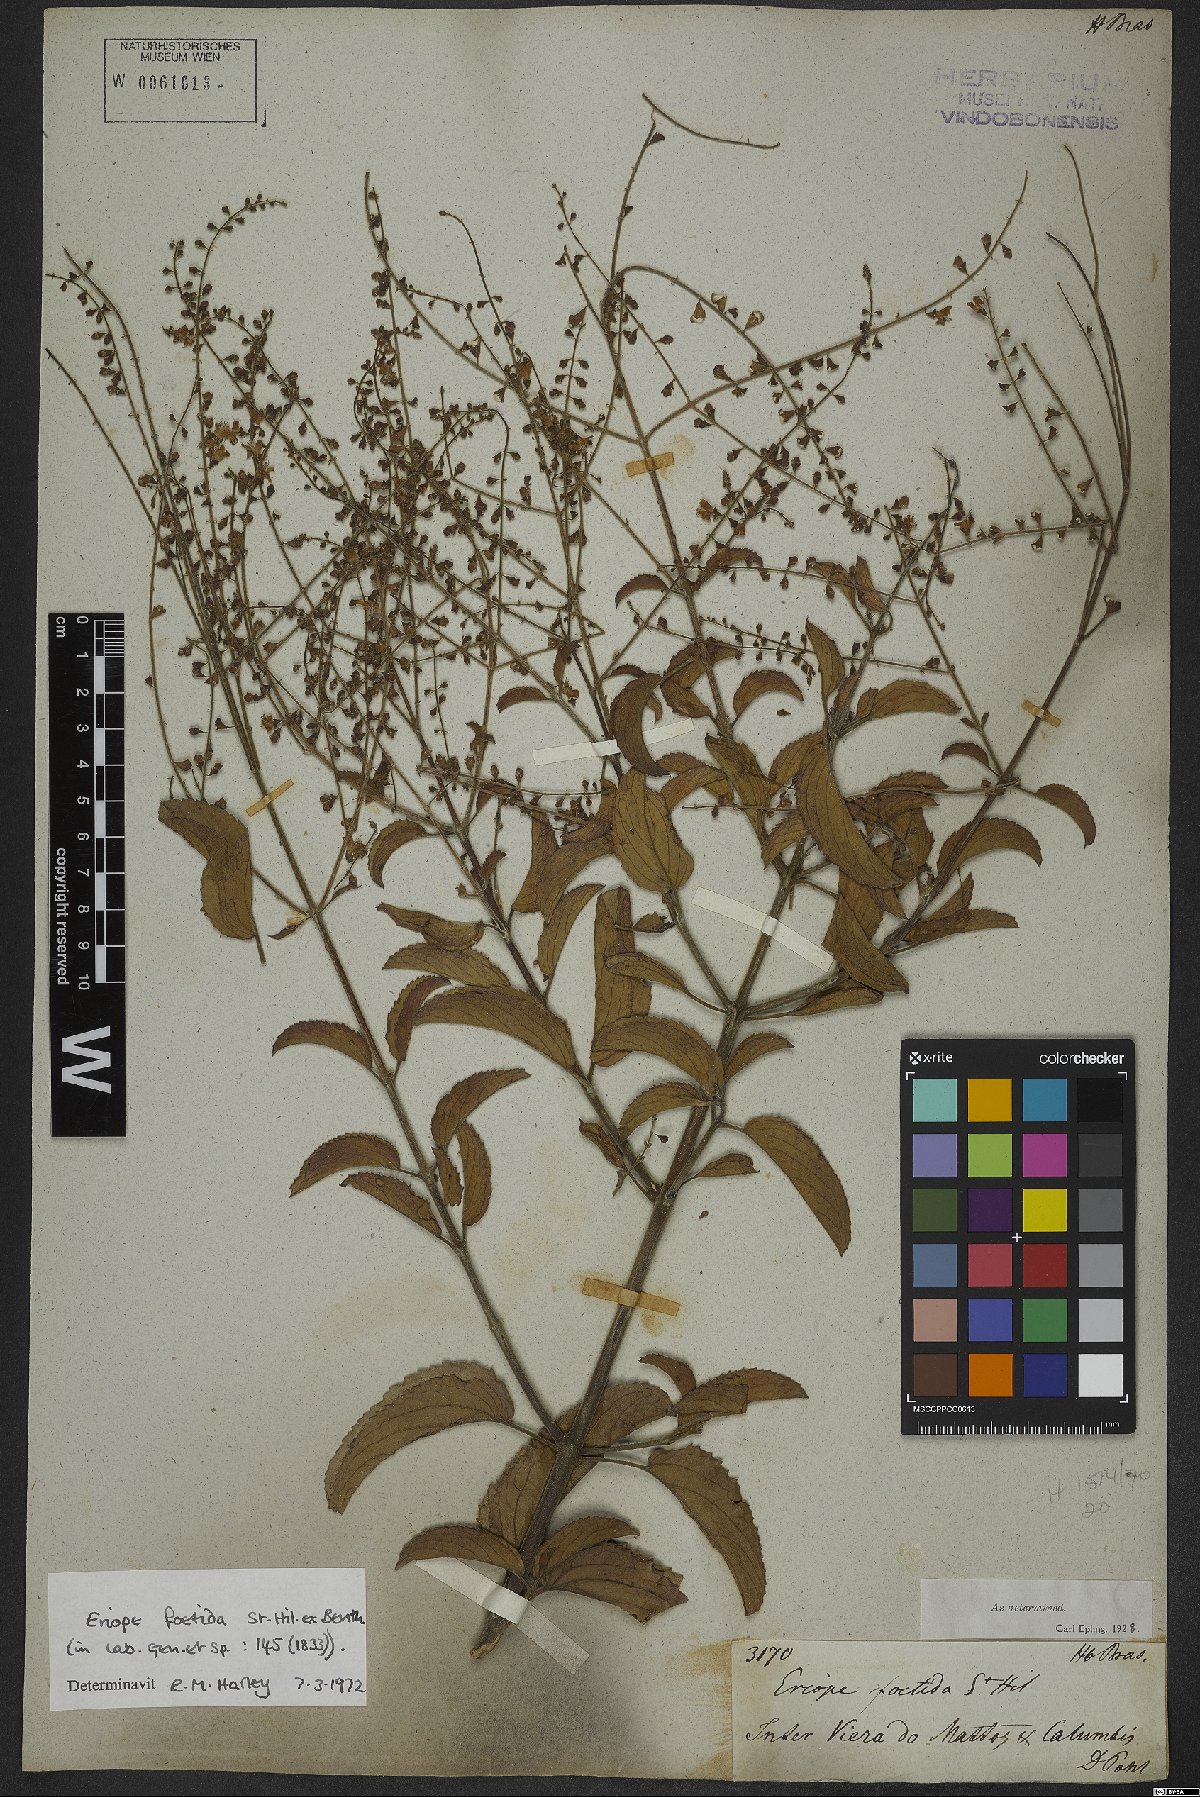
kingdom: Plantae
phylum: Tracheophyta
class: Magnoliopsida
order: Lamiales
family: Lamiaceae
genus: Eriope
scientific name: Eriope foetida
